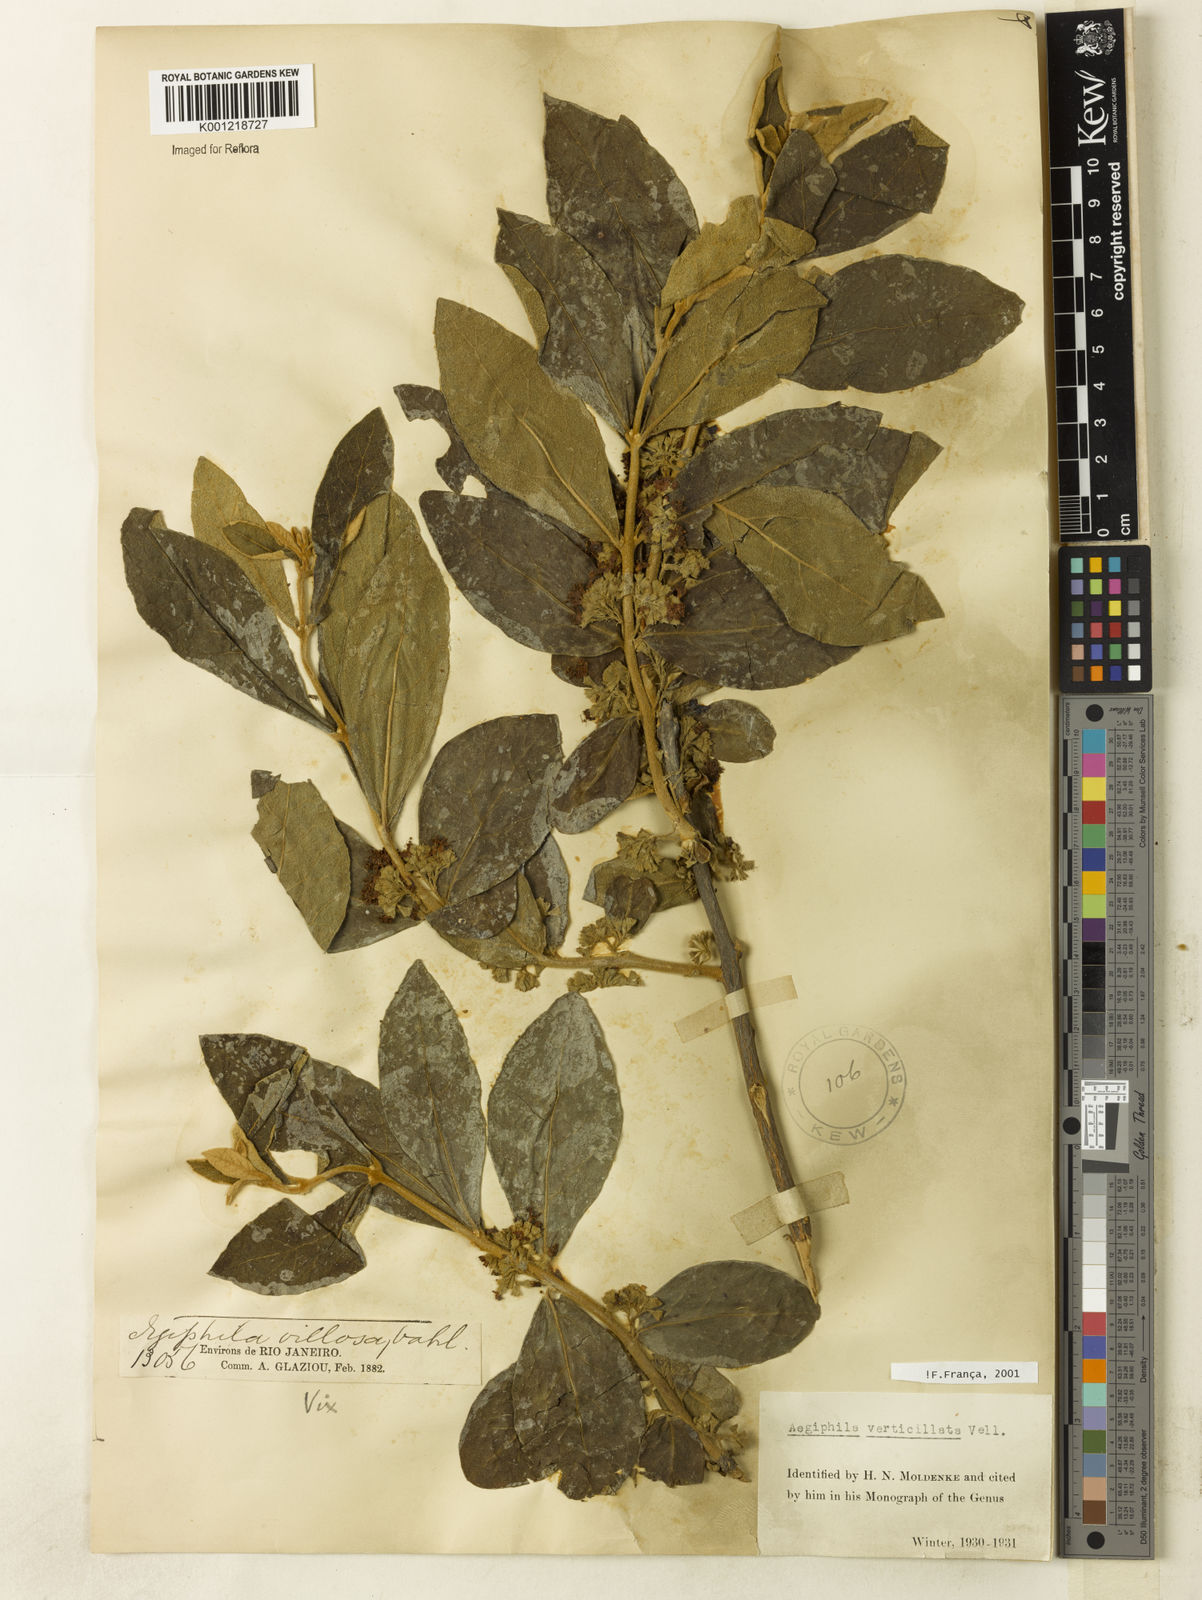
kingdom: Plantae
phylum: Tracheophyta
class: Magnoliopsida
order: Lamiales
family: Lamiaceae
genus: Aegiphila
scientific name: Aegiphila verticillata
